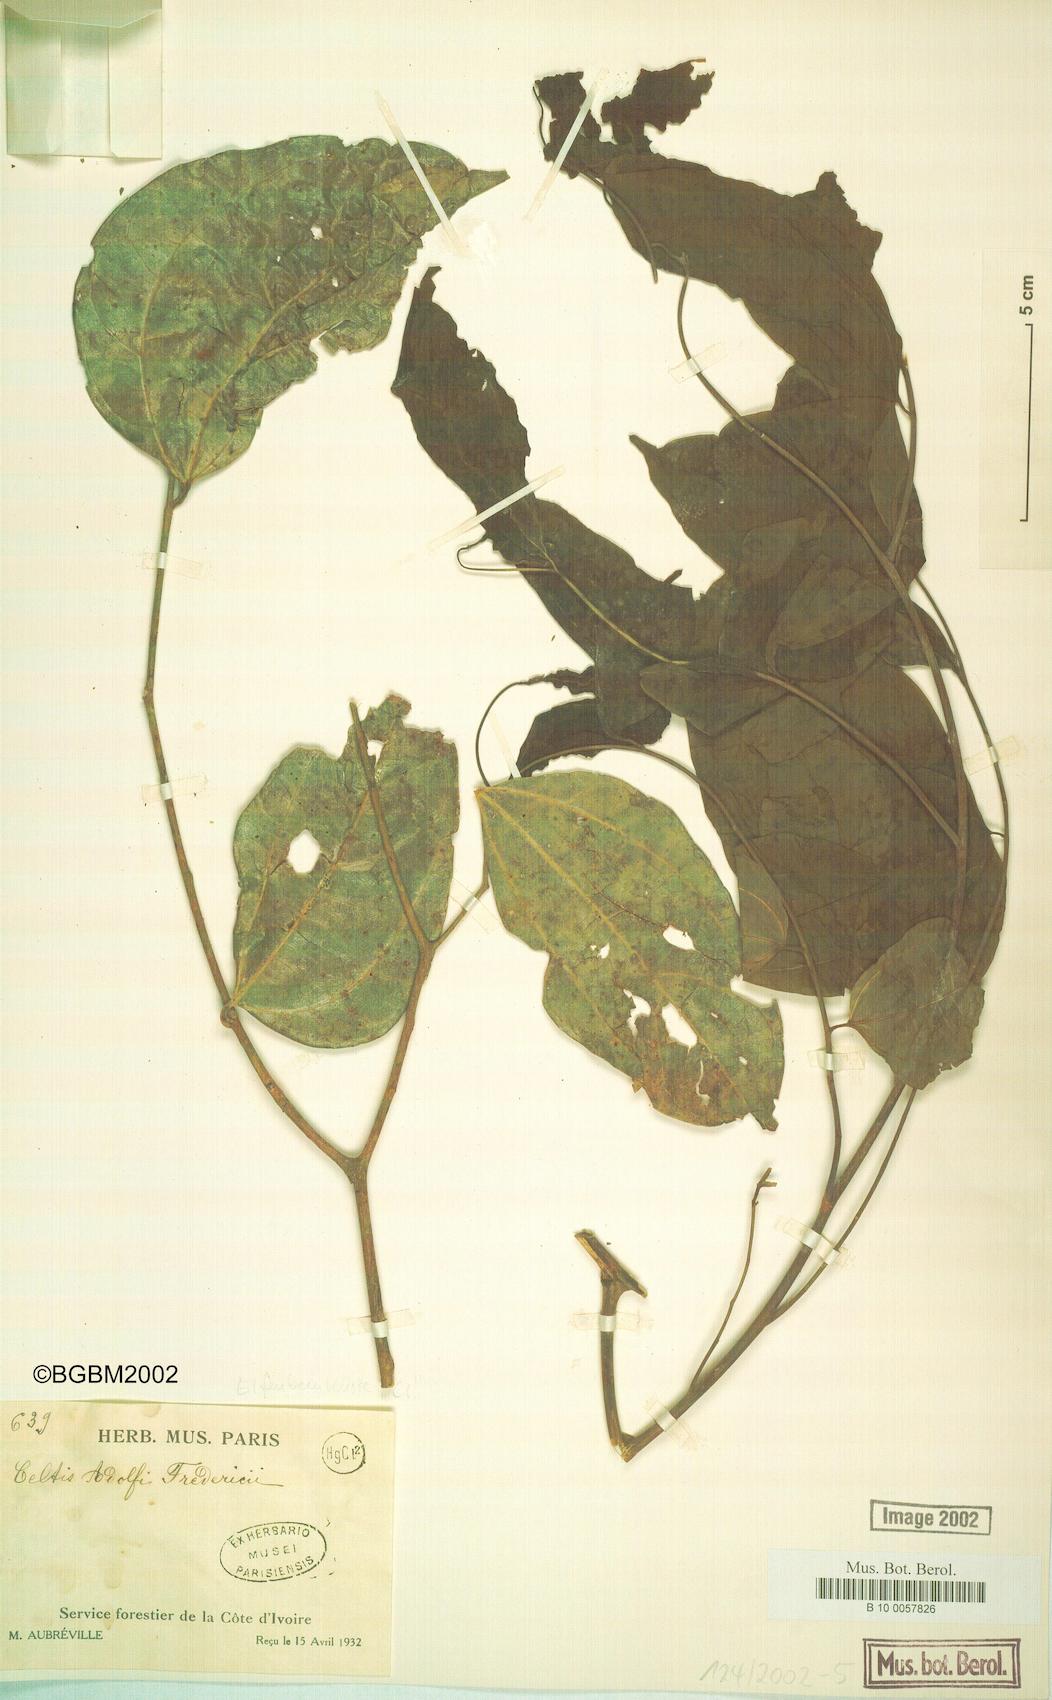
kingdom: Plantae
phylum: Tracheophyta
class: Magnoliopsida
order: Rosales
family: Cannabaceae
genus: Celtis
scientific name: Celtis adolfi-friderici
